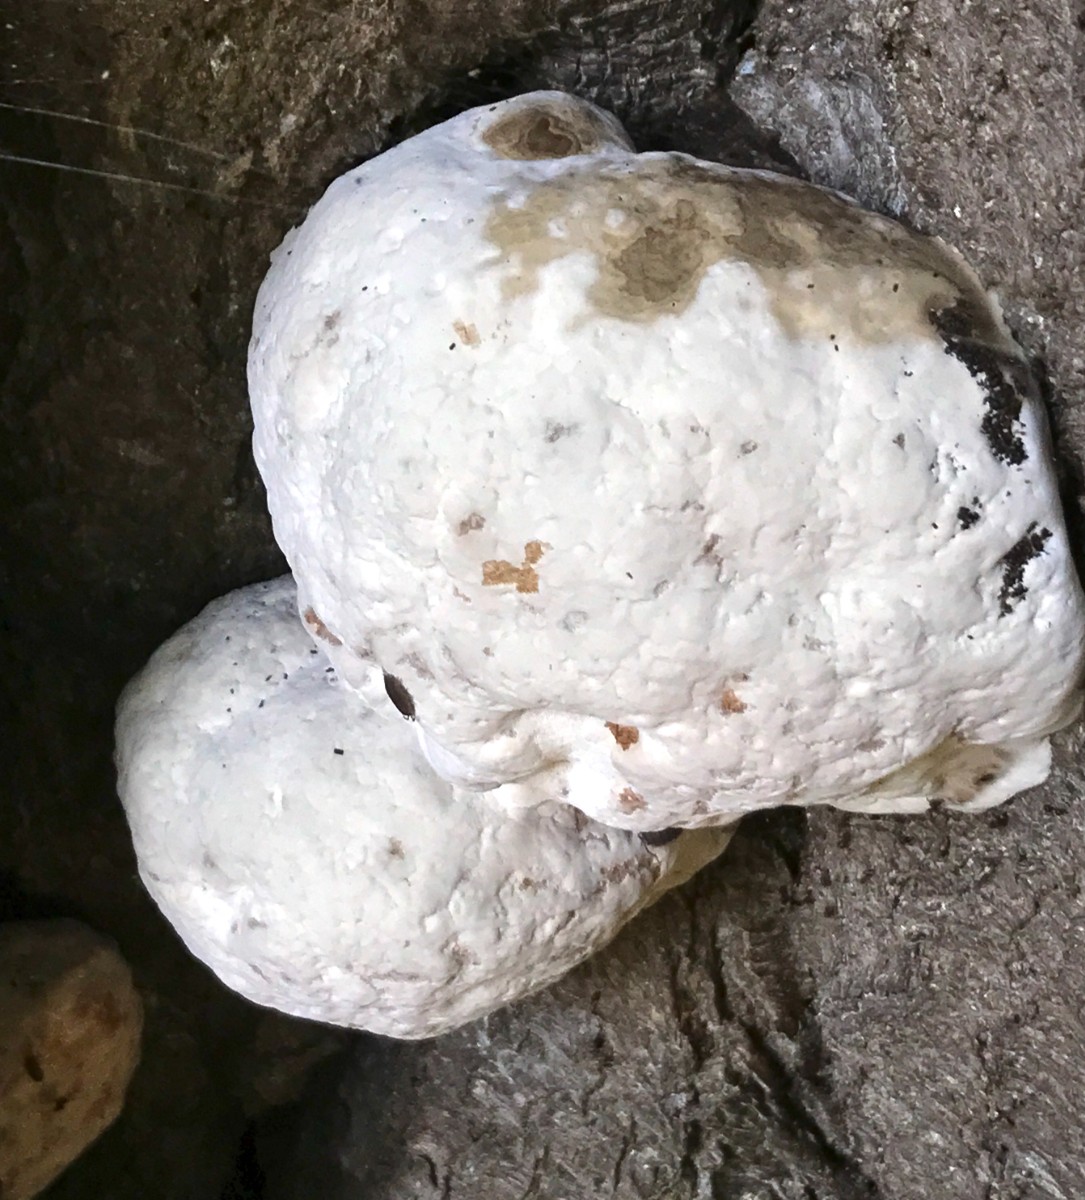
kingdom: Fungi
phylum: Basidiomycota
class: Agaricomycetes
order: Polyporales
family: Polyporaceae
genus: Ganoderma
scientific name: Ganoderma
